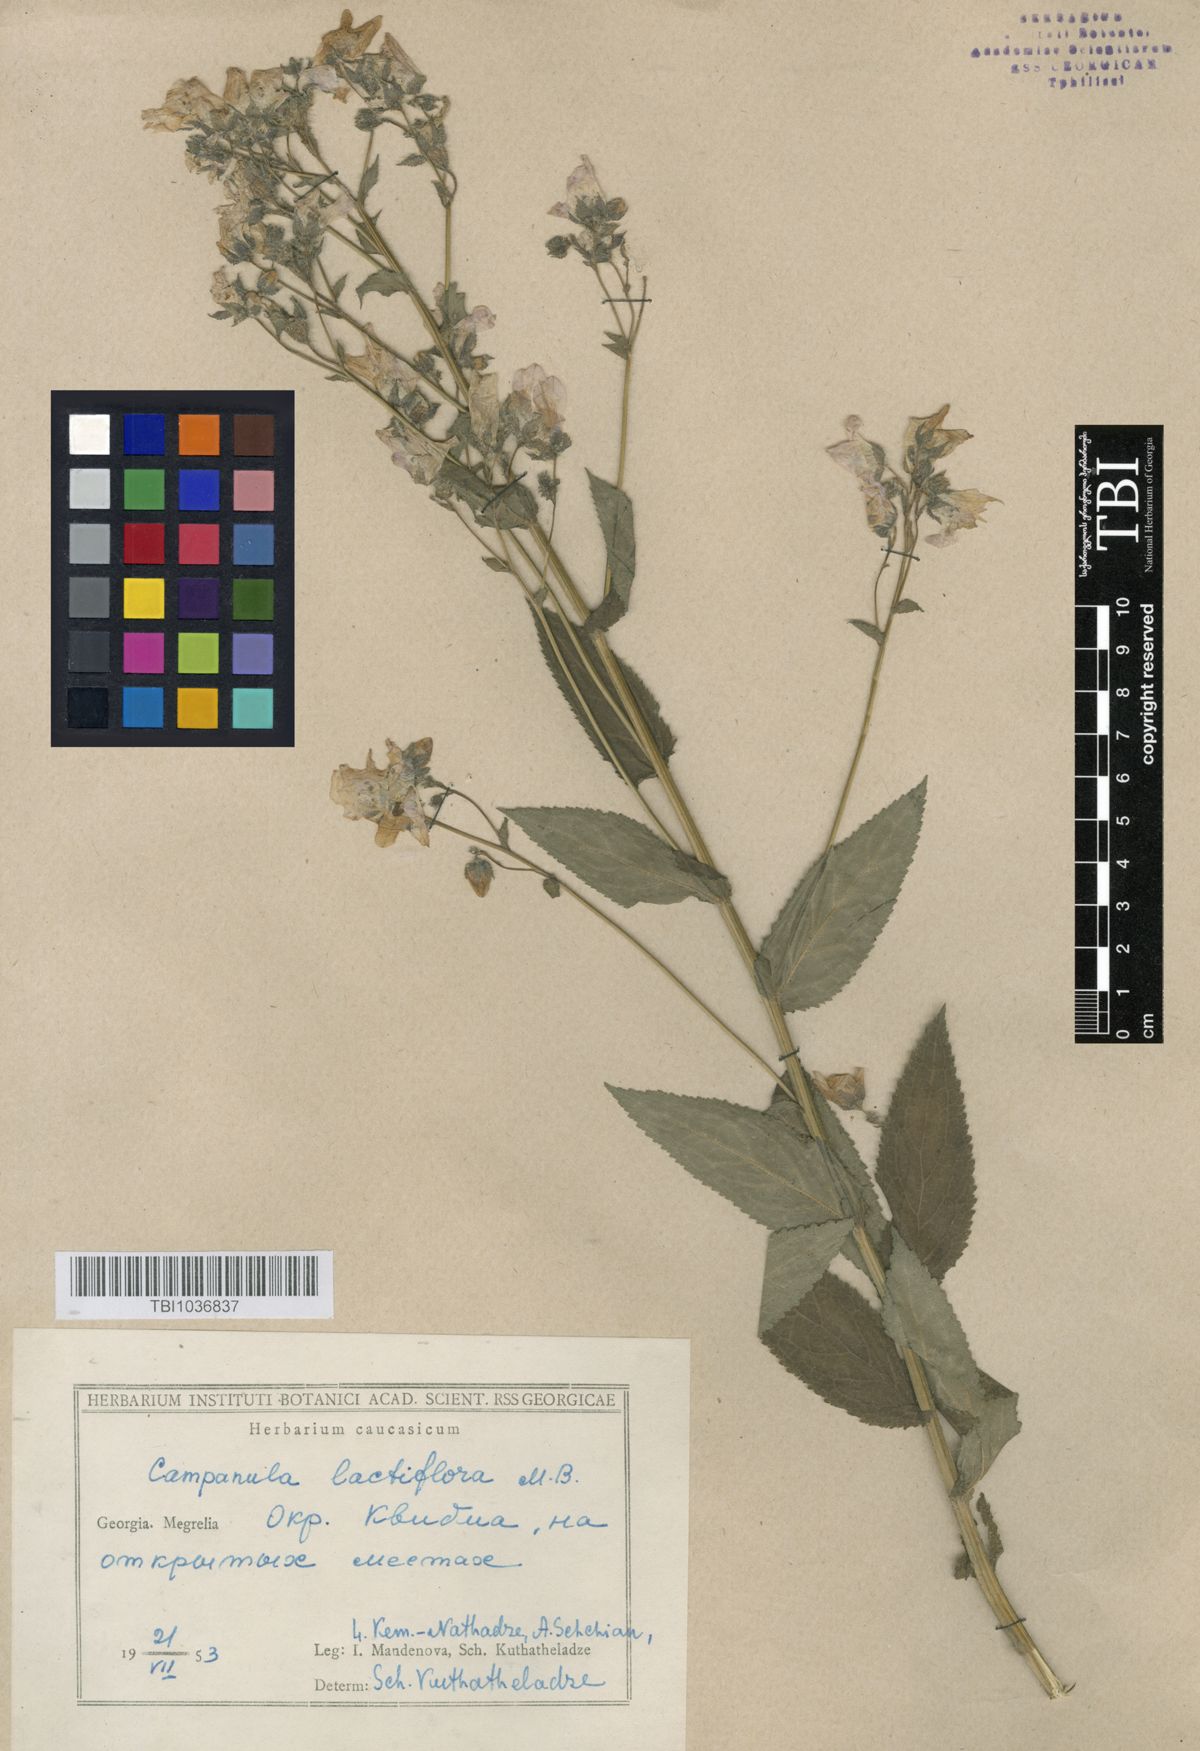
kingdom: Plantae
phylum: Tracheophyta
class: Magnoliopsida
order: Asterales
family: Campanulaceae
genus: Campanula
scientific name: Campanula lactiflora
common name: Milky bellflower
